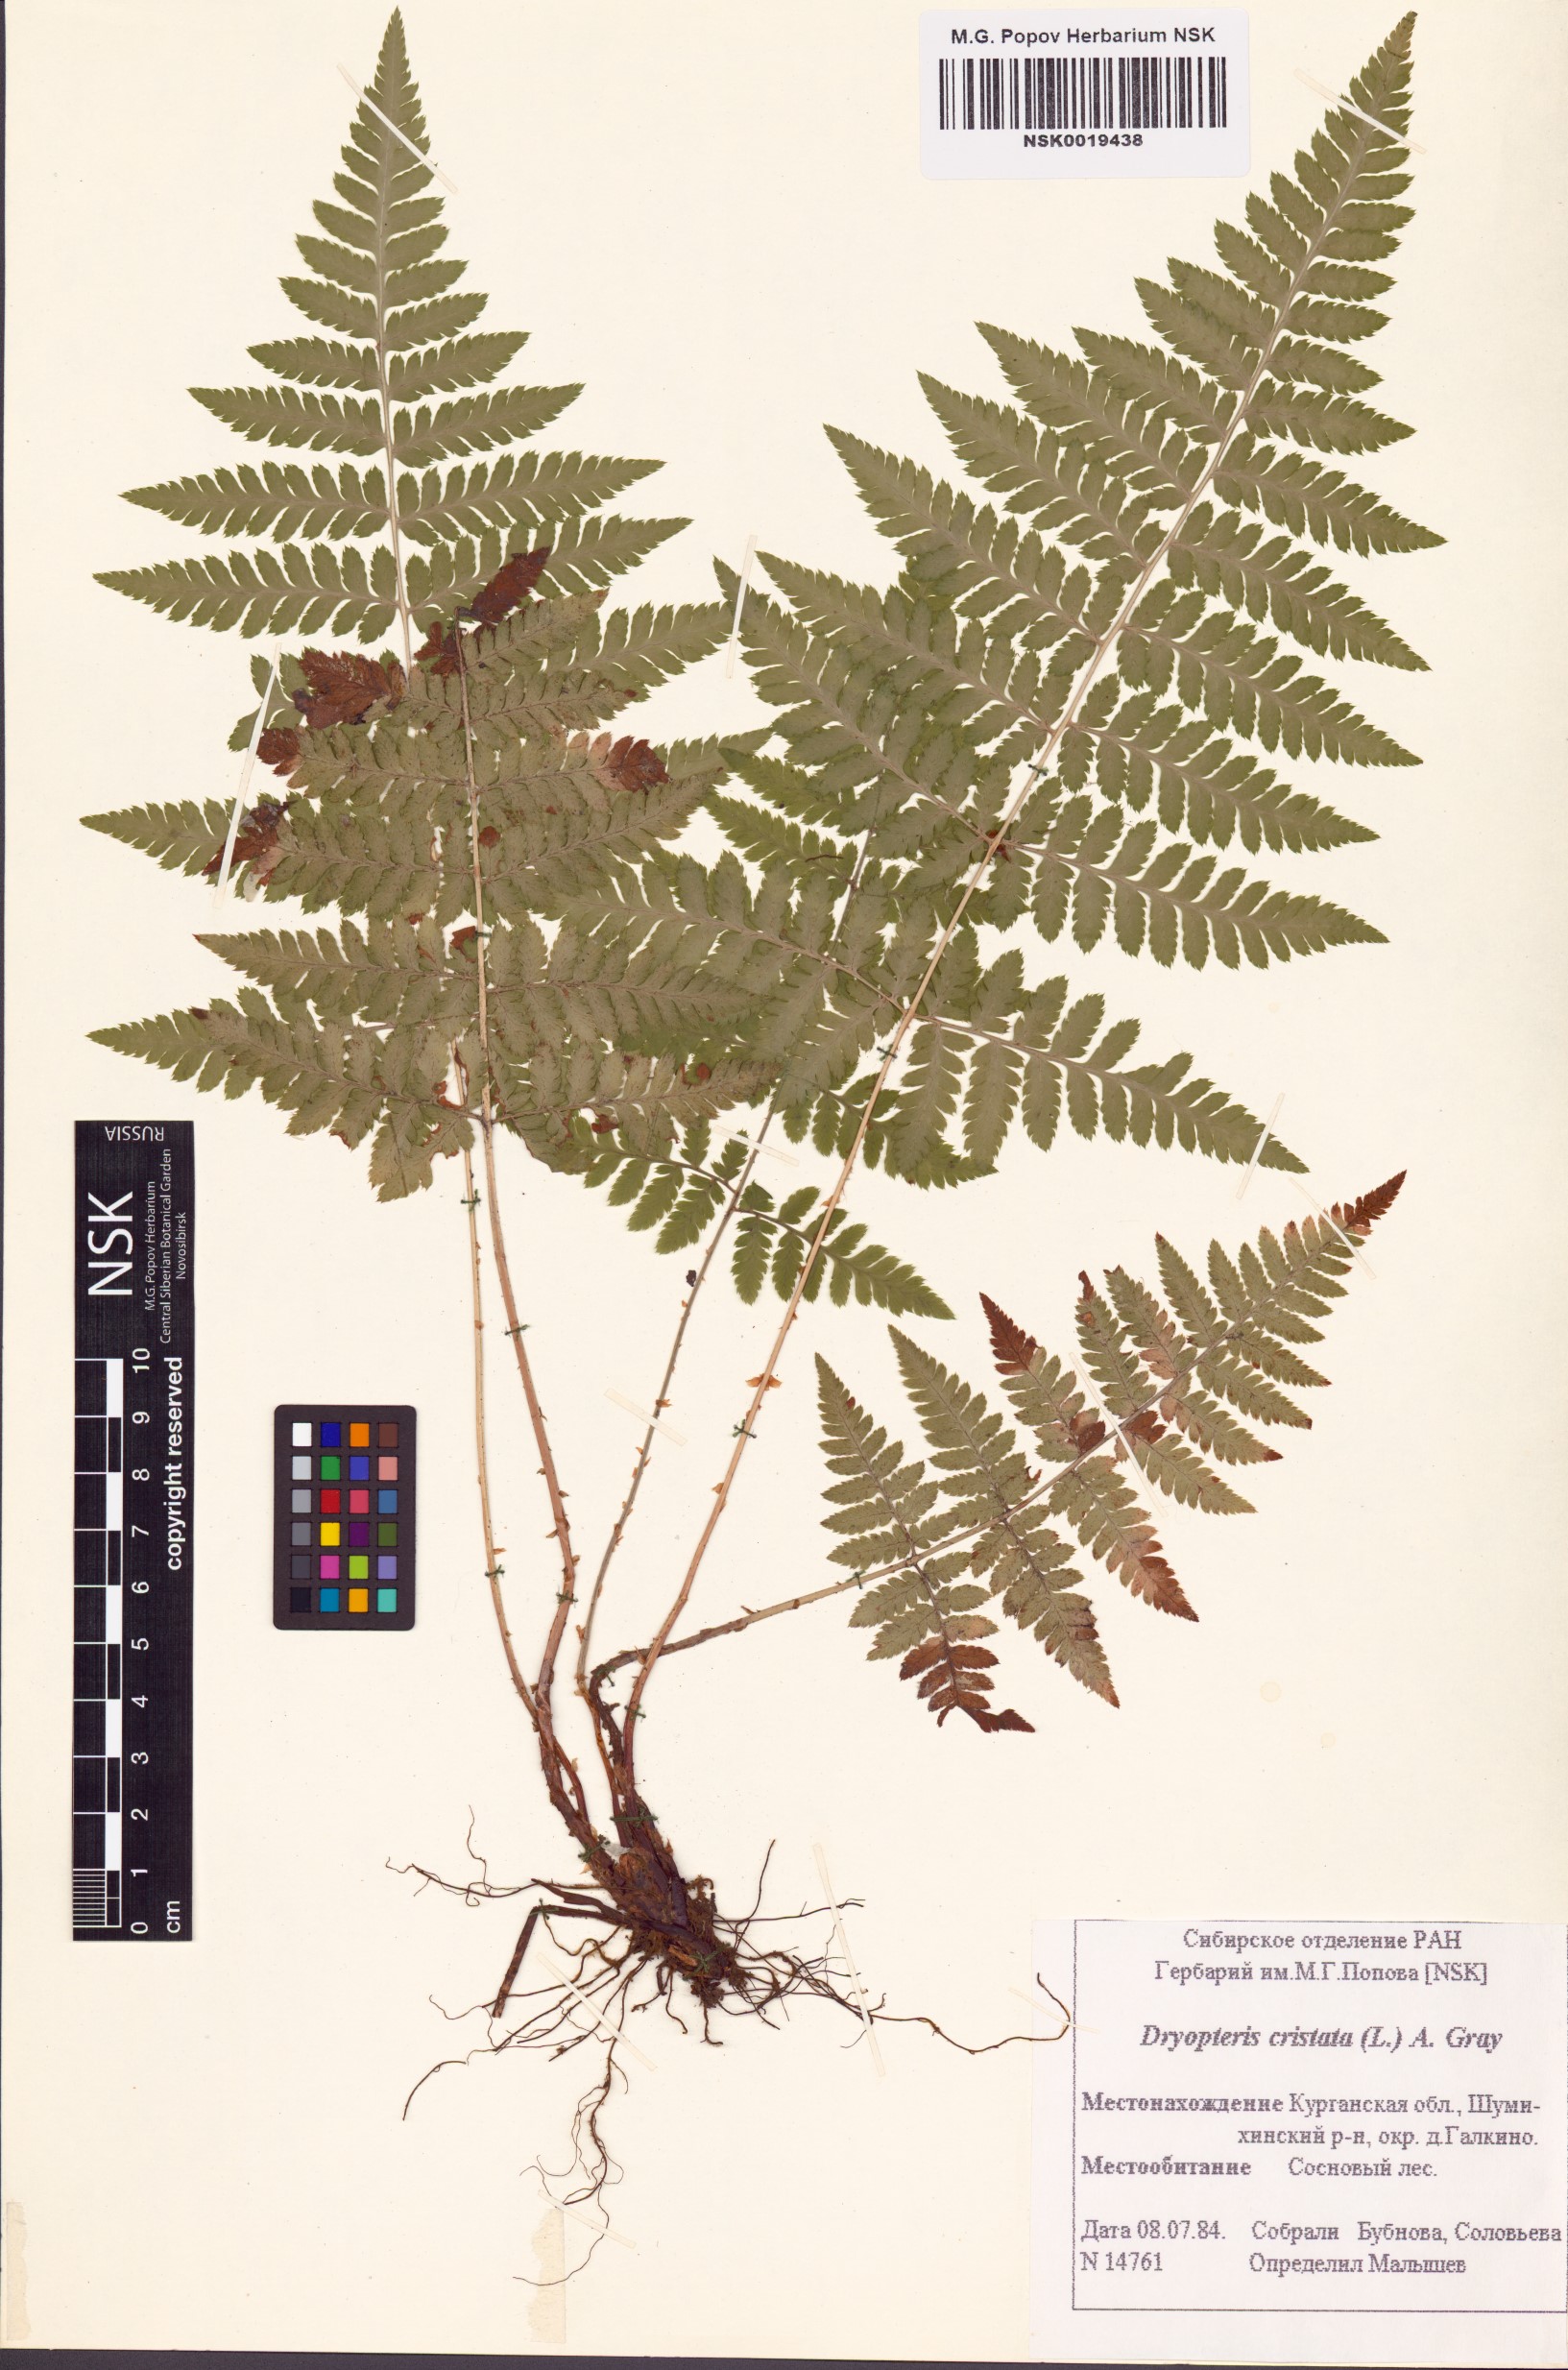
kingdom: Plantae
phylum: Tracheophyta
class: Polypodiopsida
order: Polypodiales
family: Dryopteridaceae
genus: Dryopteris
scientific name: Dryopteris cristata
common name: Crested wood fern
